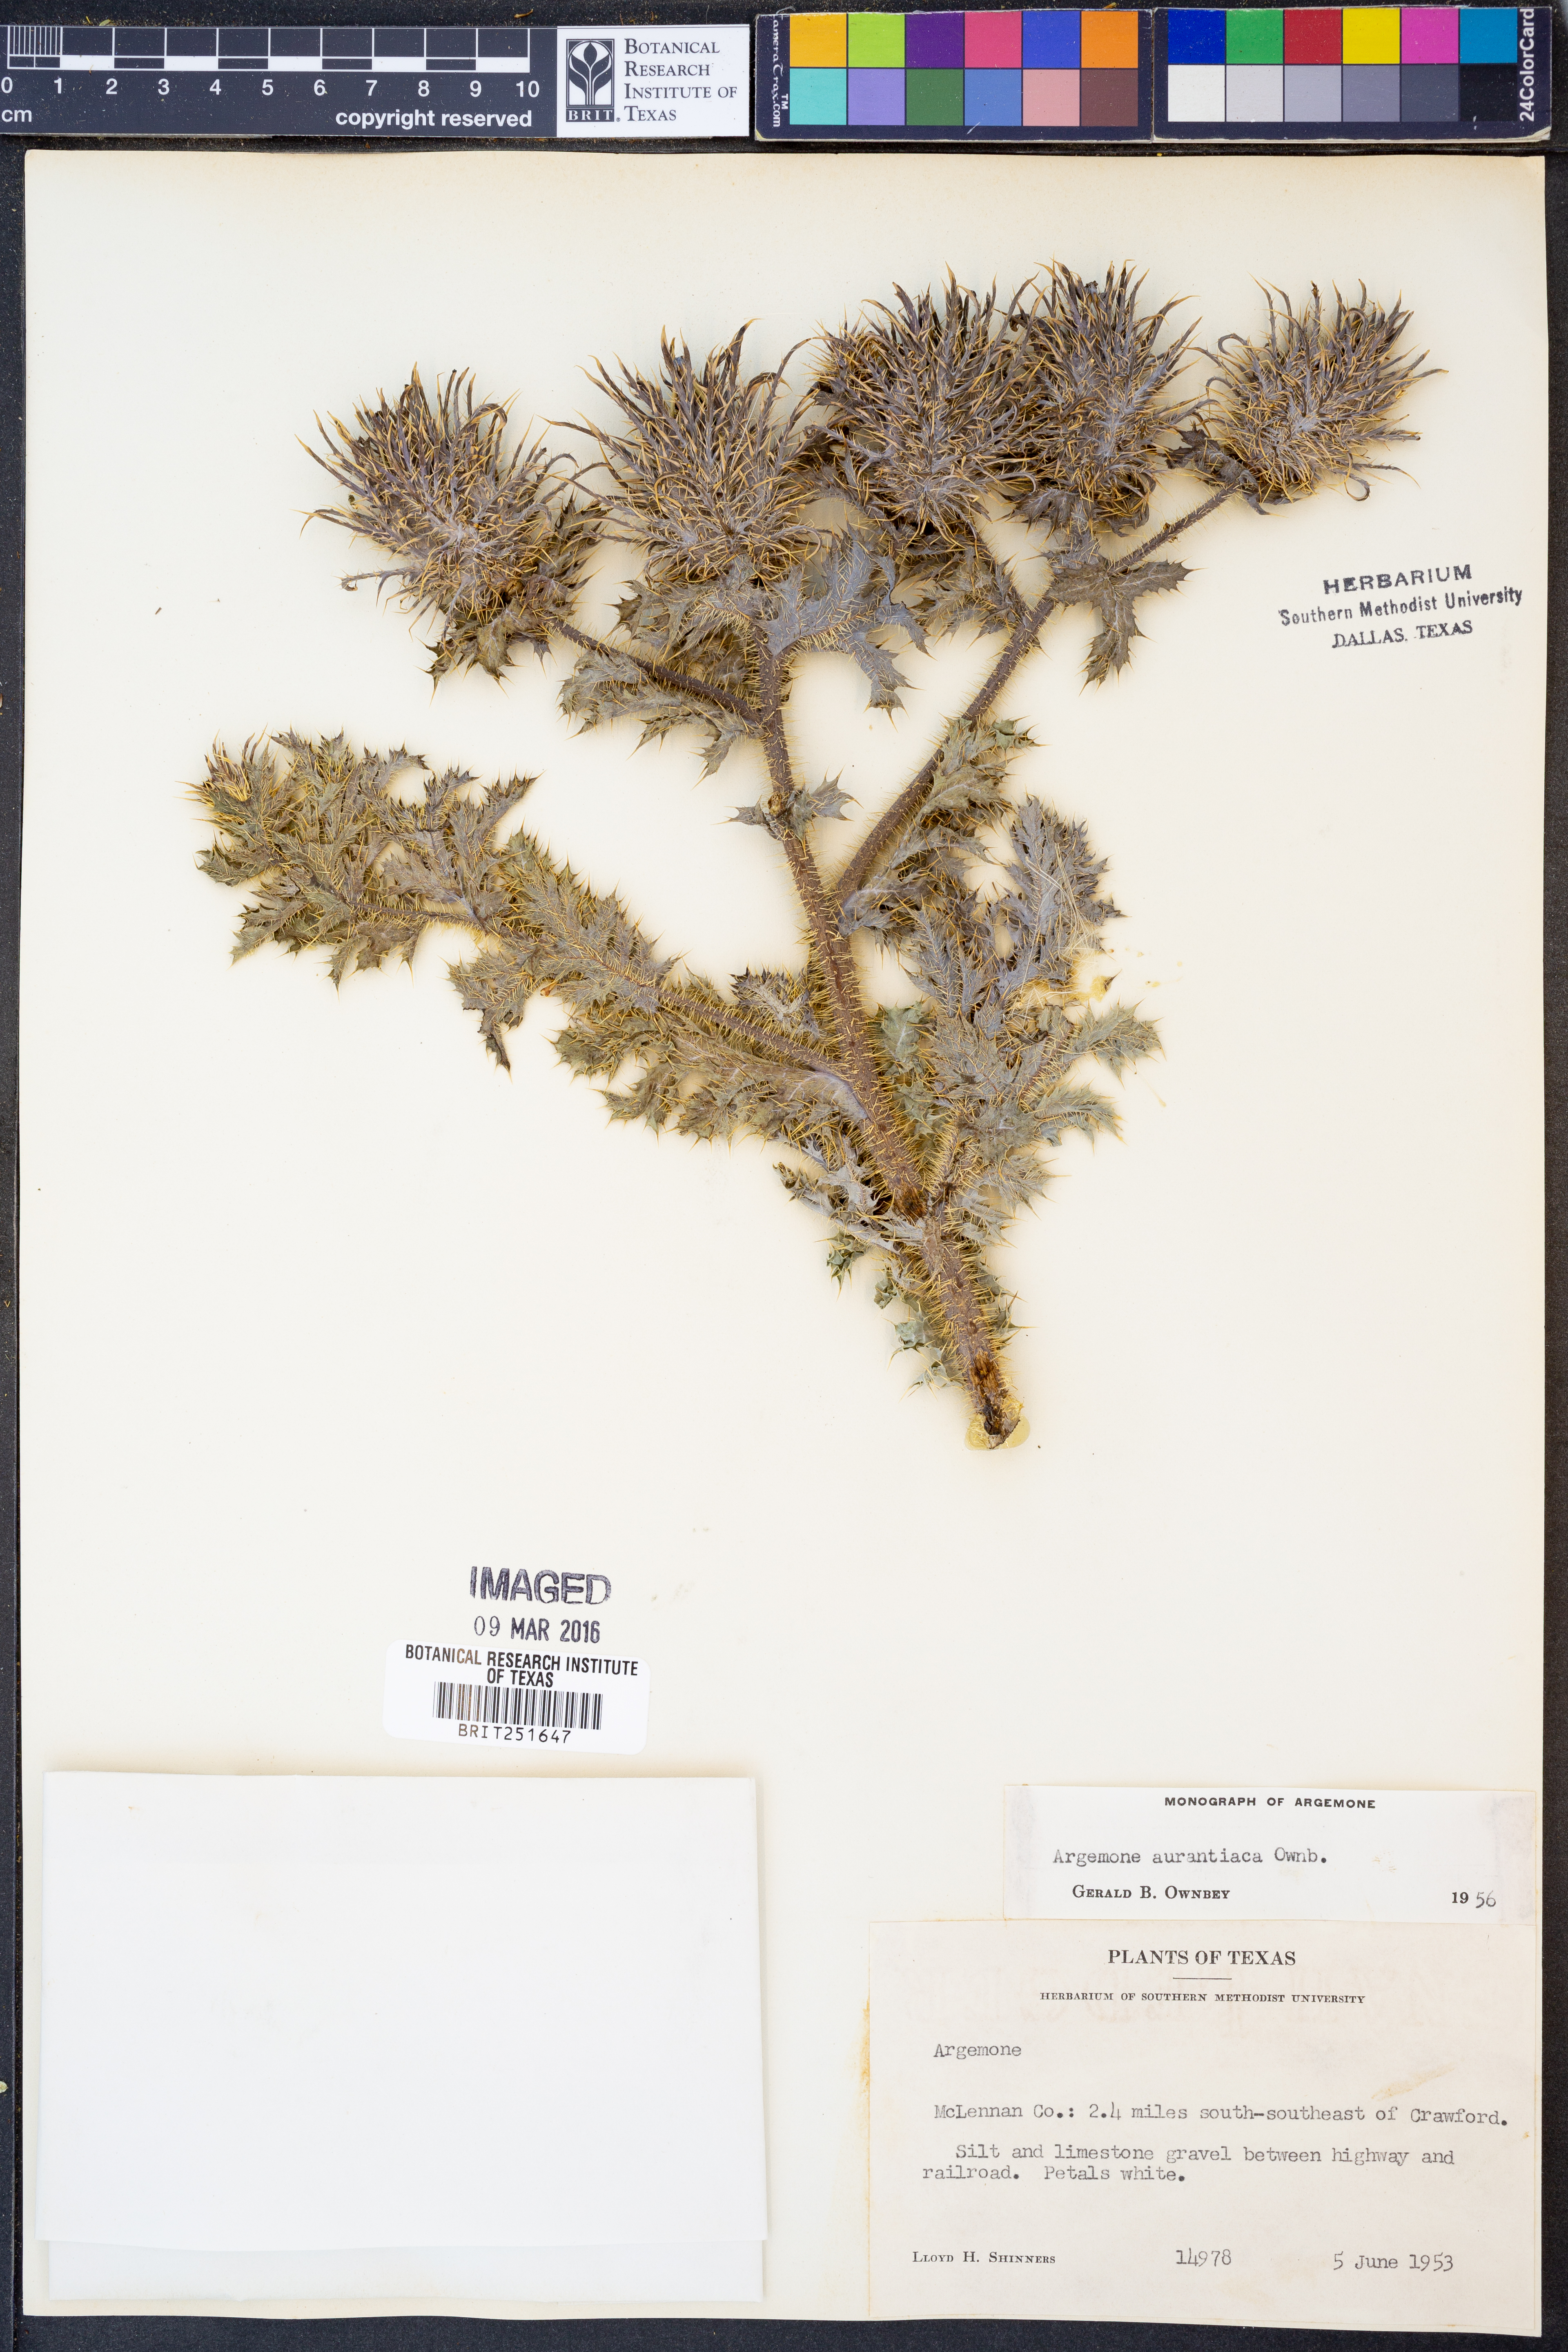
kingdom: Plantae
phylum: Tracheophyta
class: Magnoliopsida
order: Ranunculales
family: Papaveraceae
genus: Argemone
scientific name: Argemone aurantiaca
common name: Texas prickly-poppy
